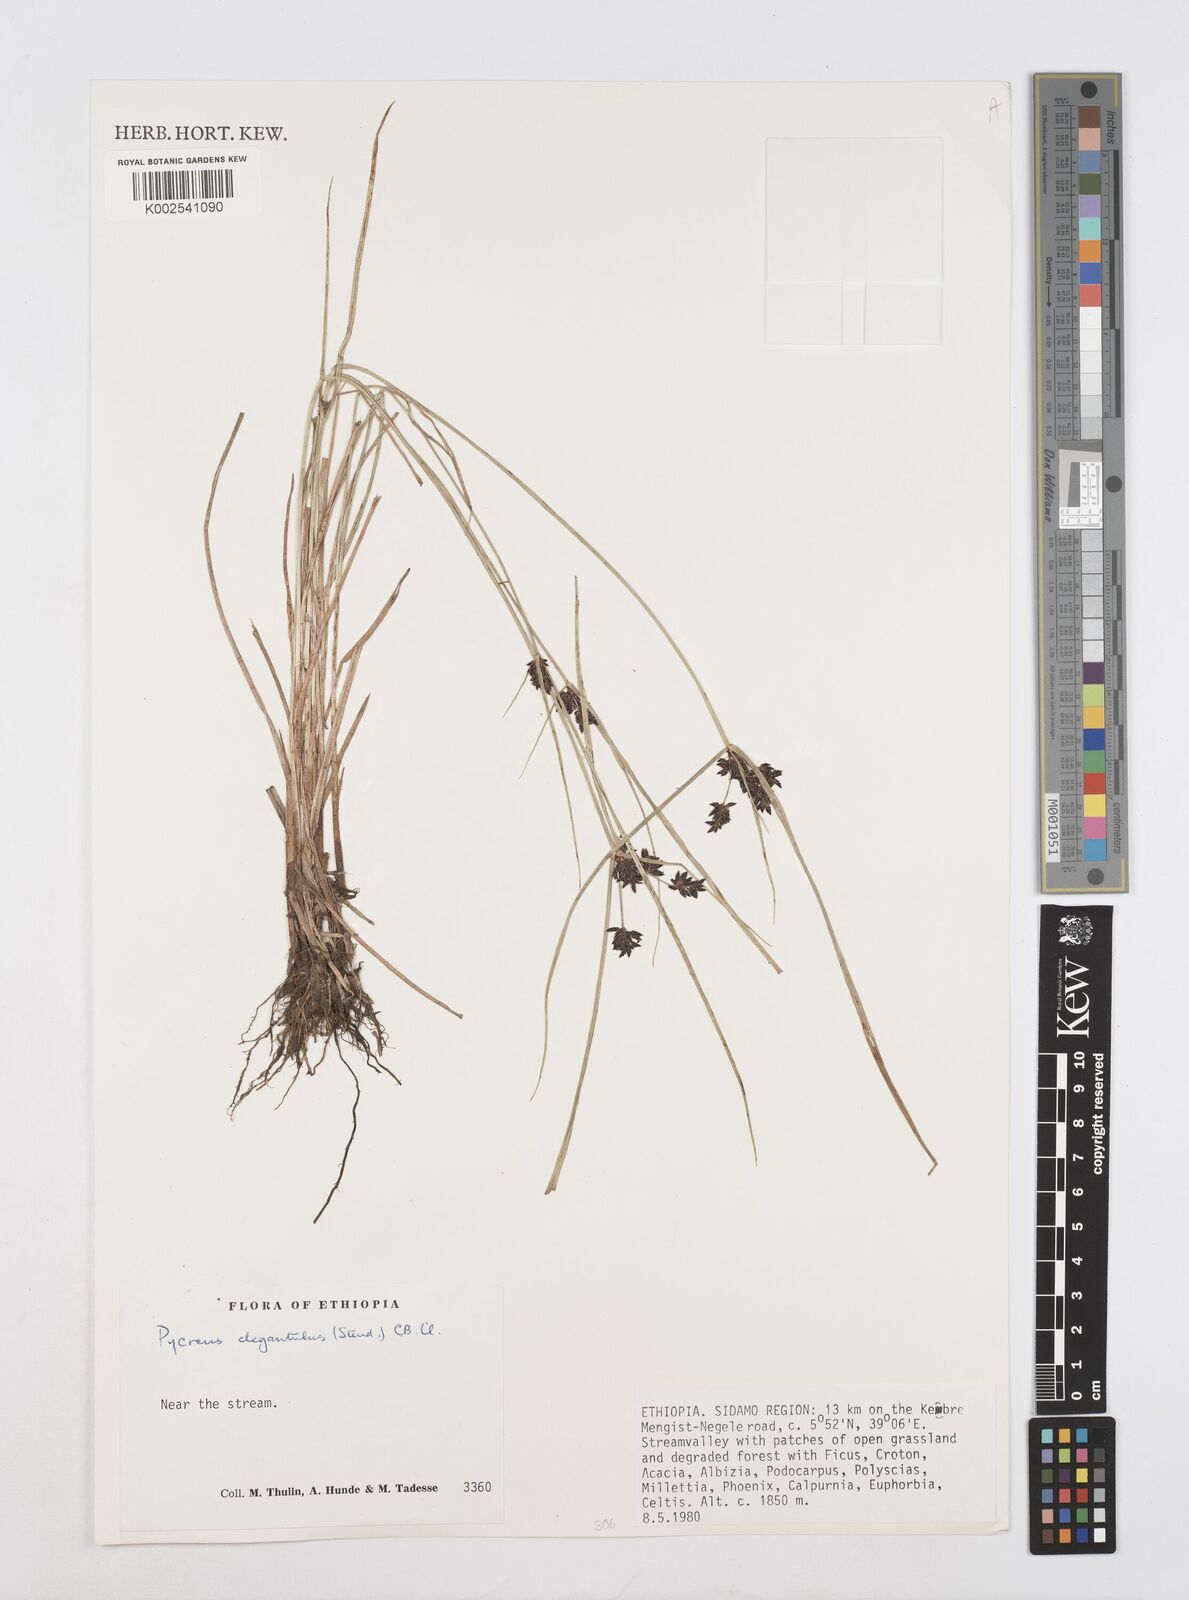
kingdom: Plantae
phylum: Tracheophyta
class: Liliopsida
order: Poales
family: Cyperaceae
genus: Cyperus
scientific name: Cyperus elegantulus
